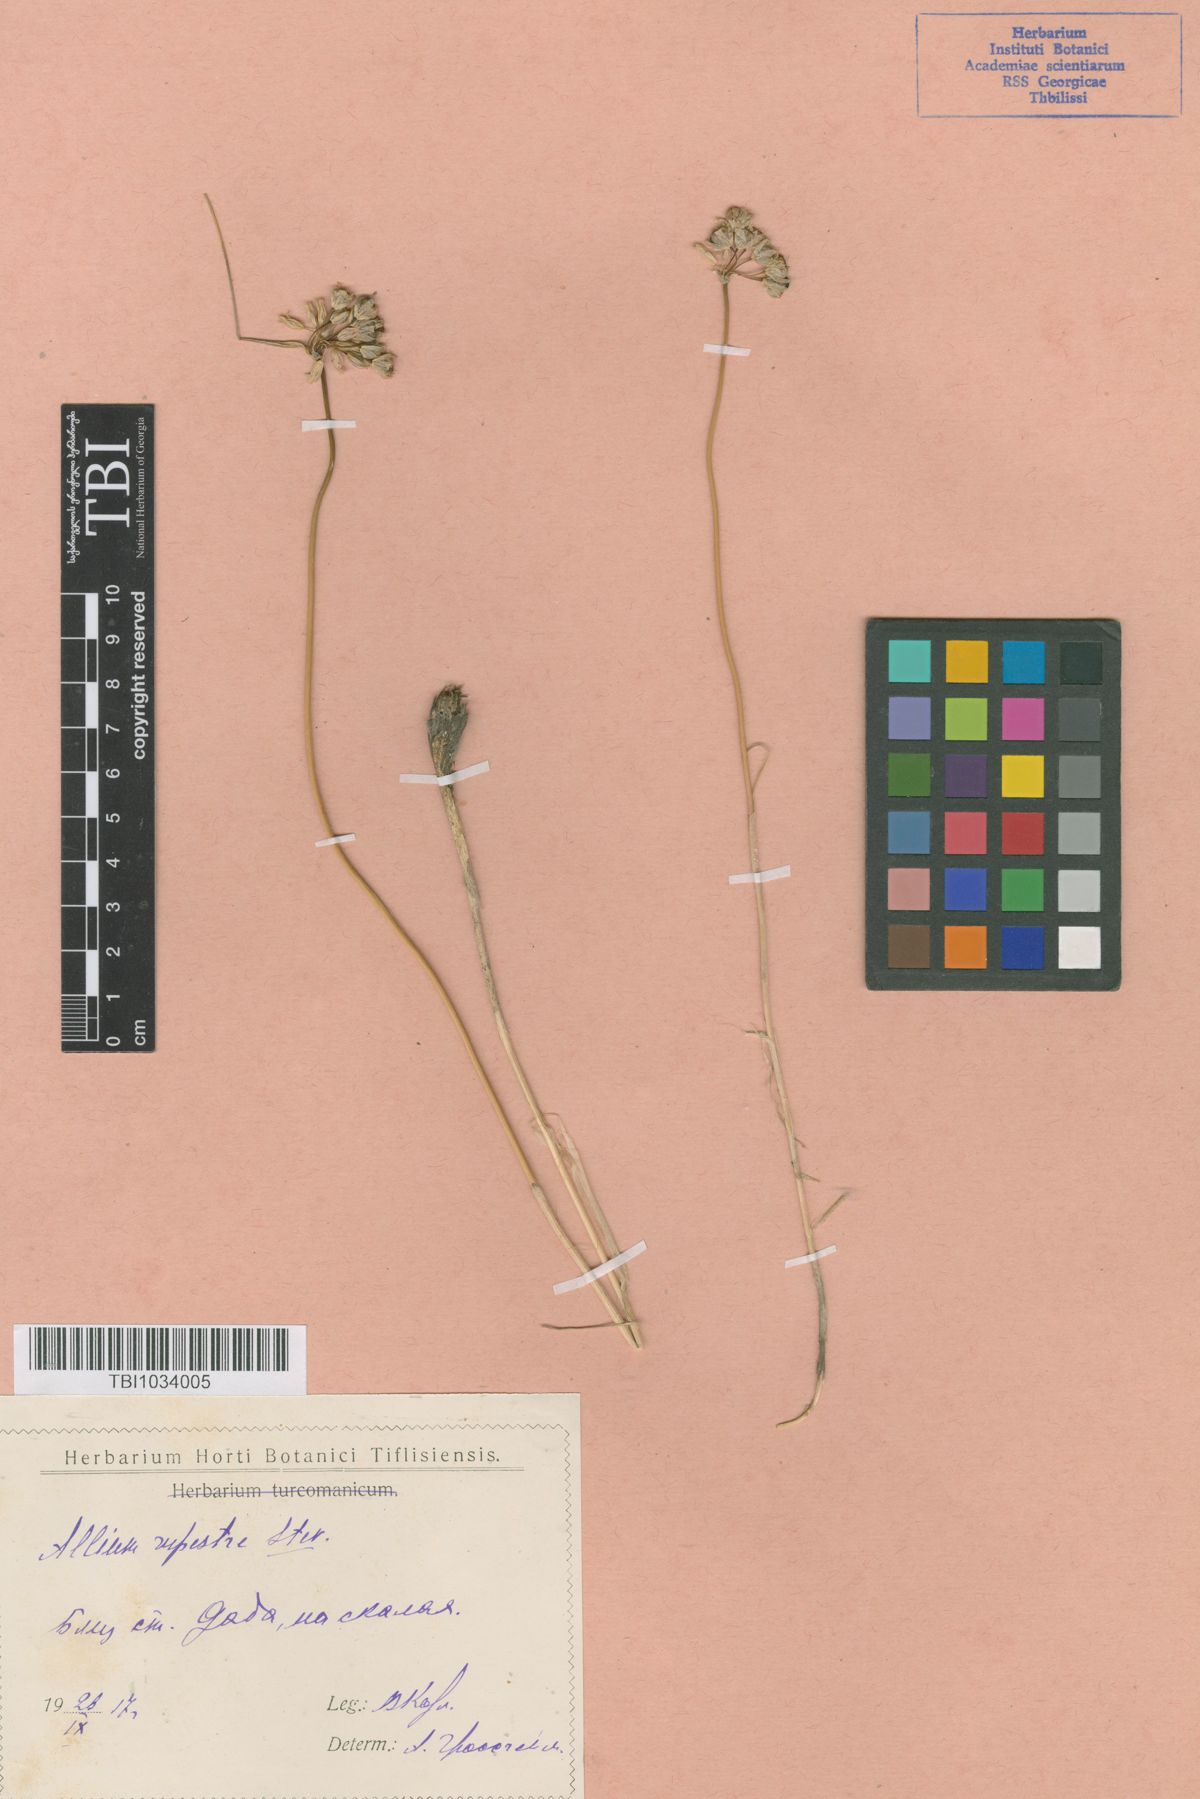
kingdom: Plantae
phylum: Tracheophyta
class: Liliopsida
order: Asparagales
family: Amaryllidaceae
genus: Allium
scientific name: Allium rupestre
